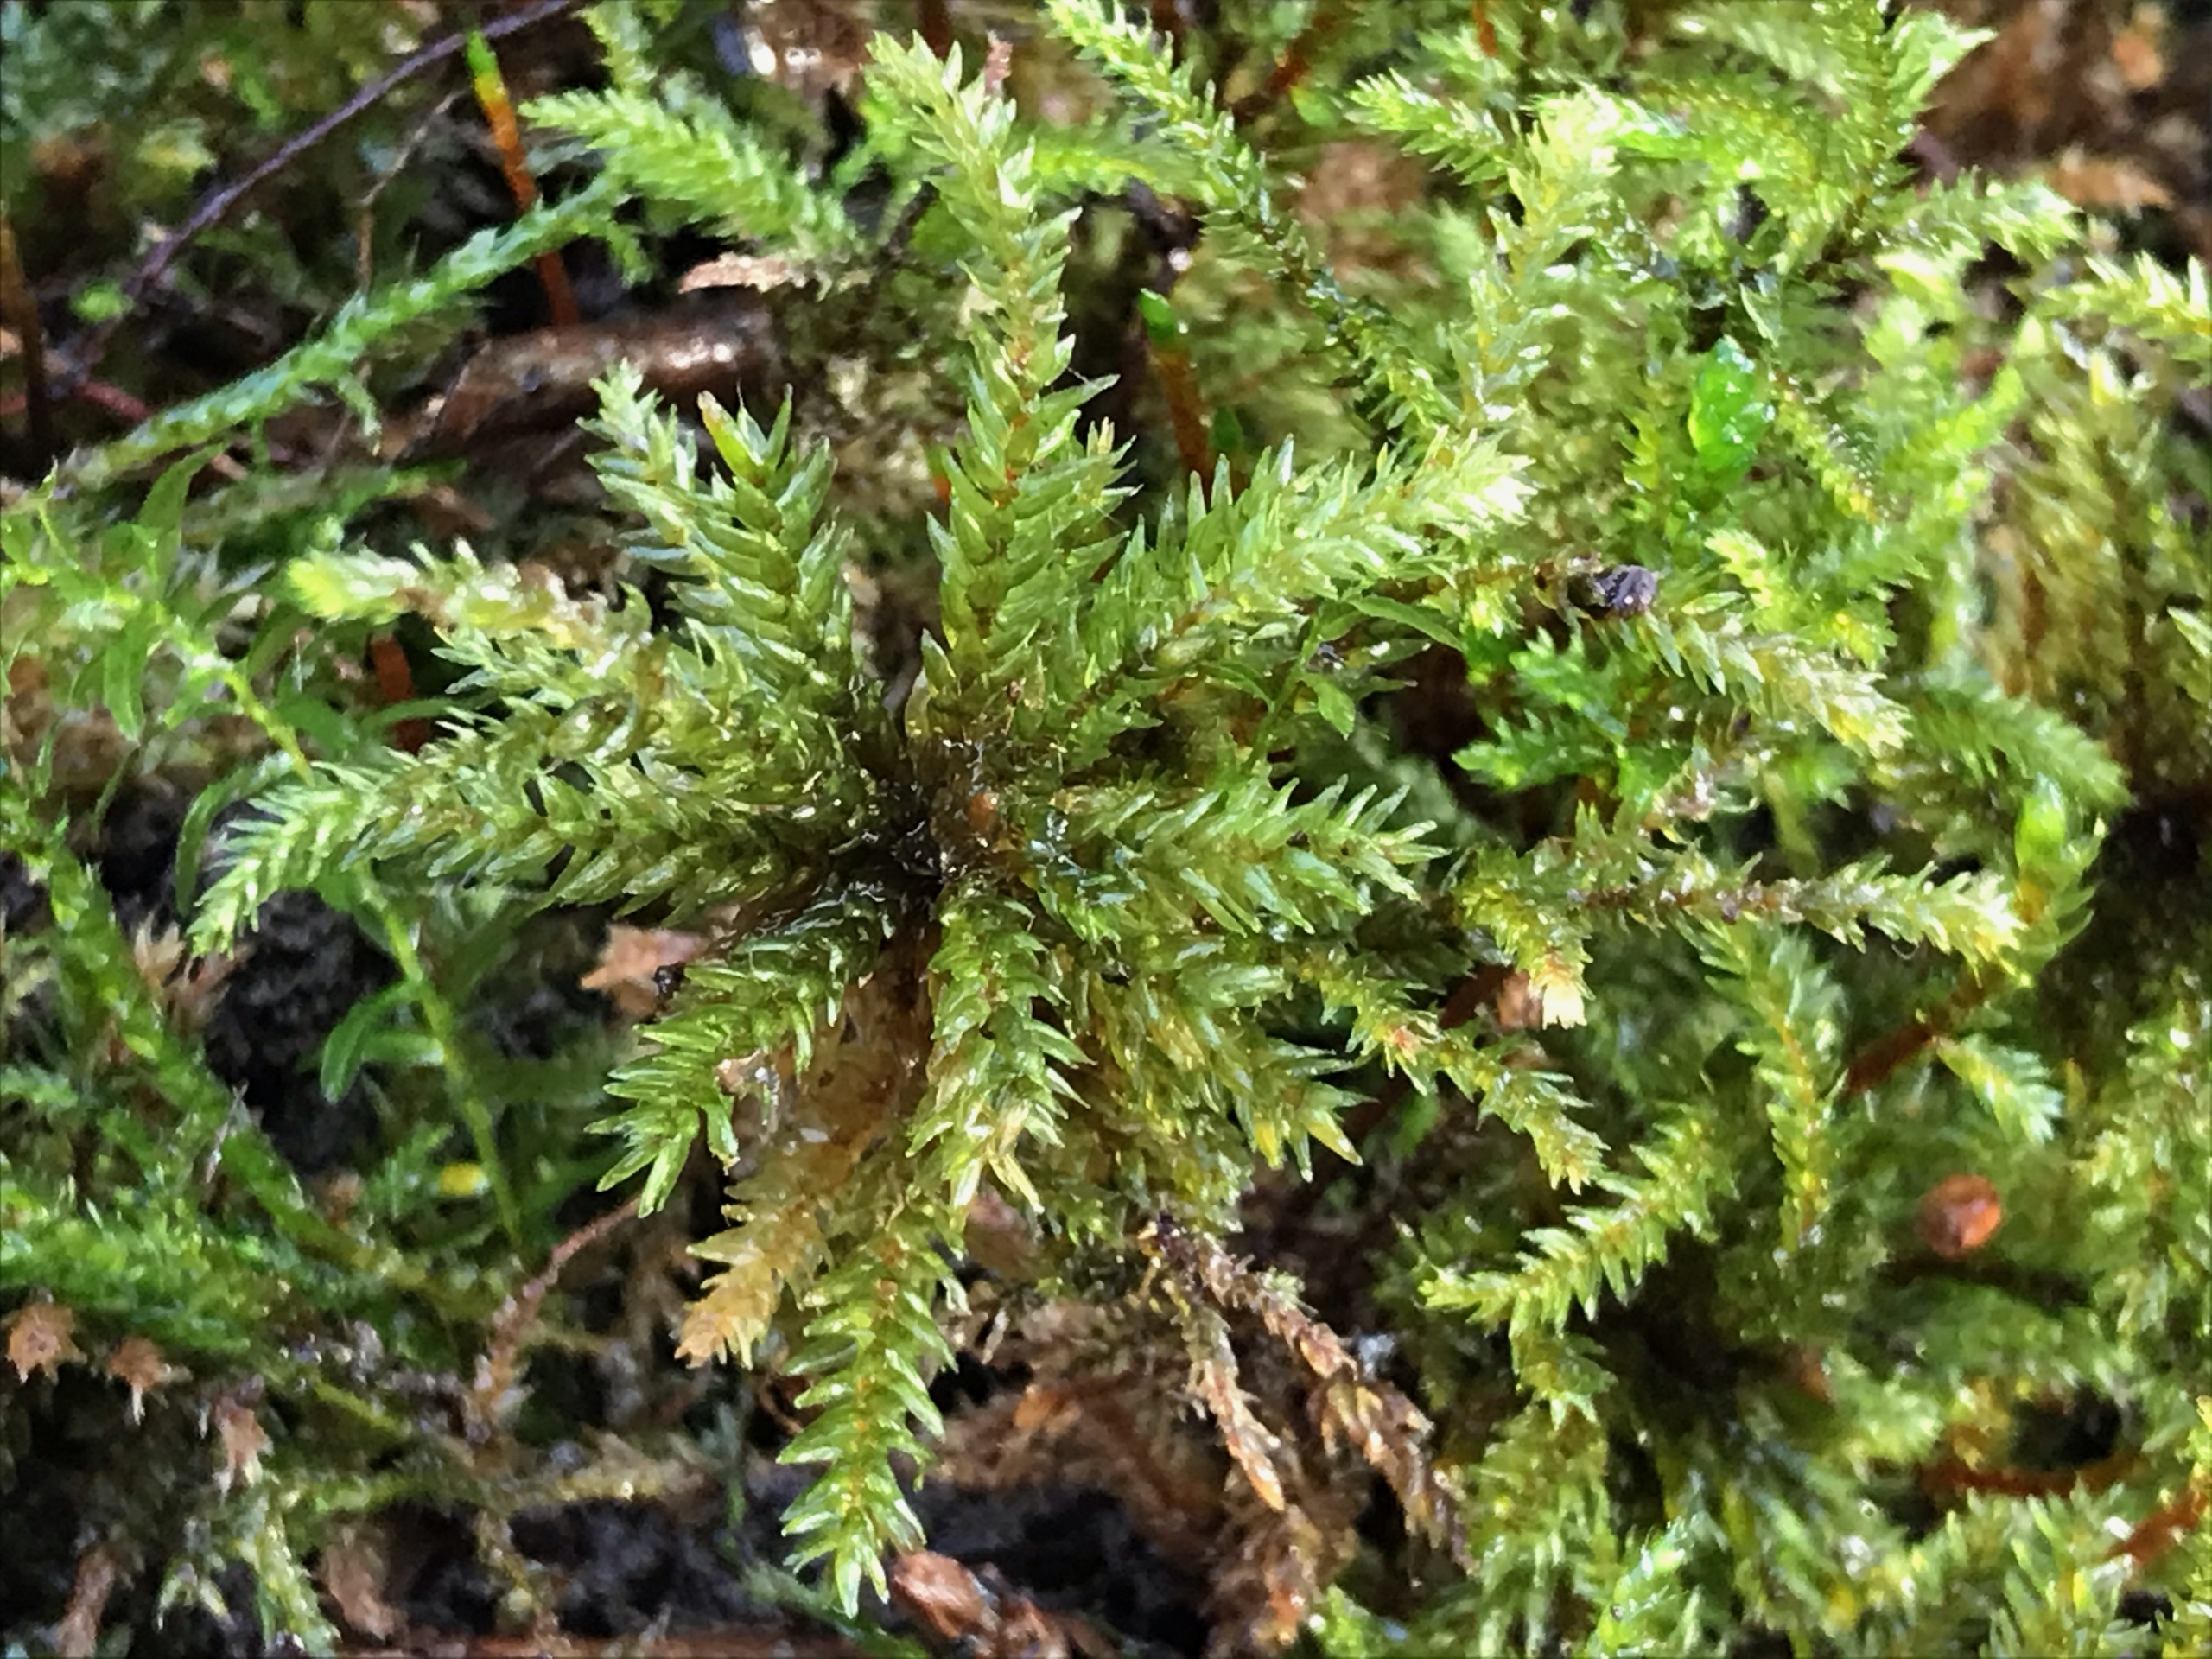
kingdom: Plantae
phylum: Bryophyta
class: Bryopsida
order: Hypnales
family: Climaciaceae
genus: Climacium
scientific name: Climacium dendroides
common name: Stor engkost
